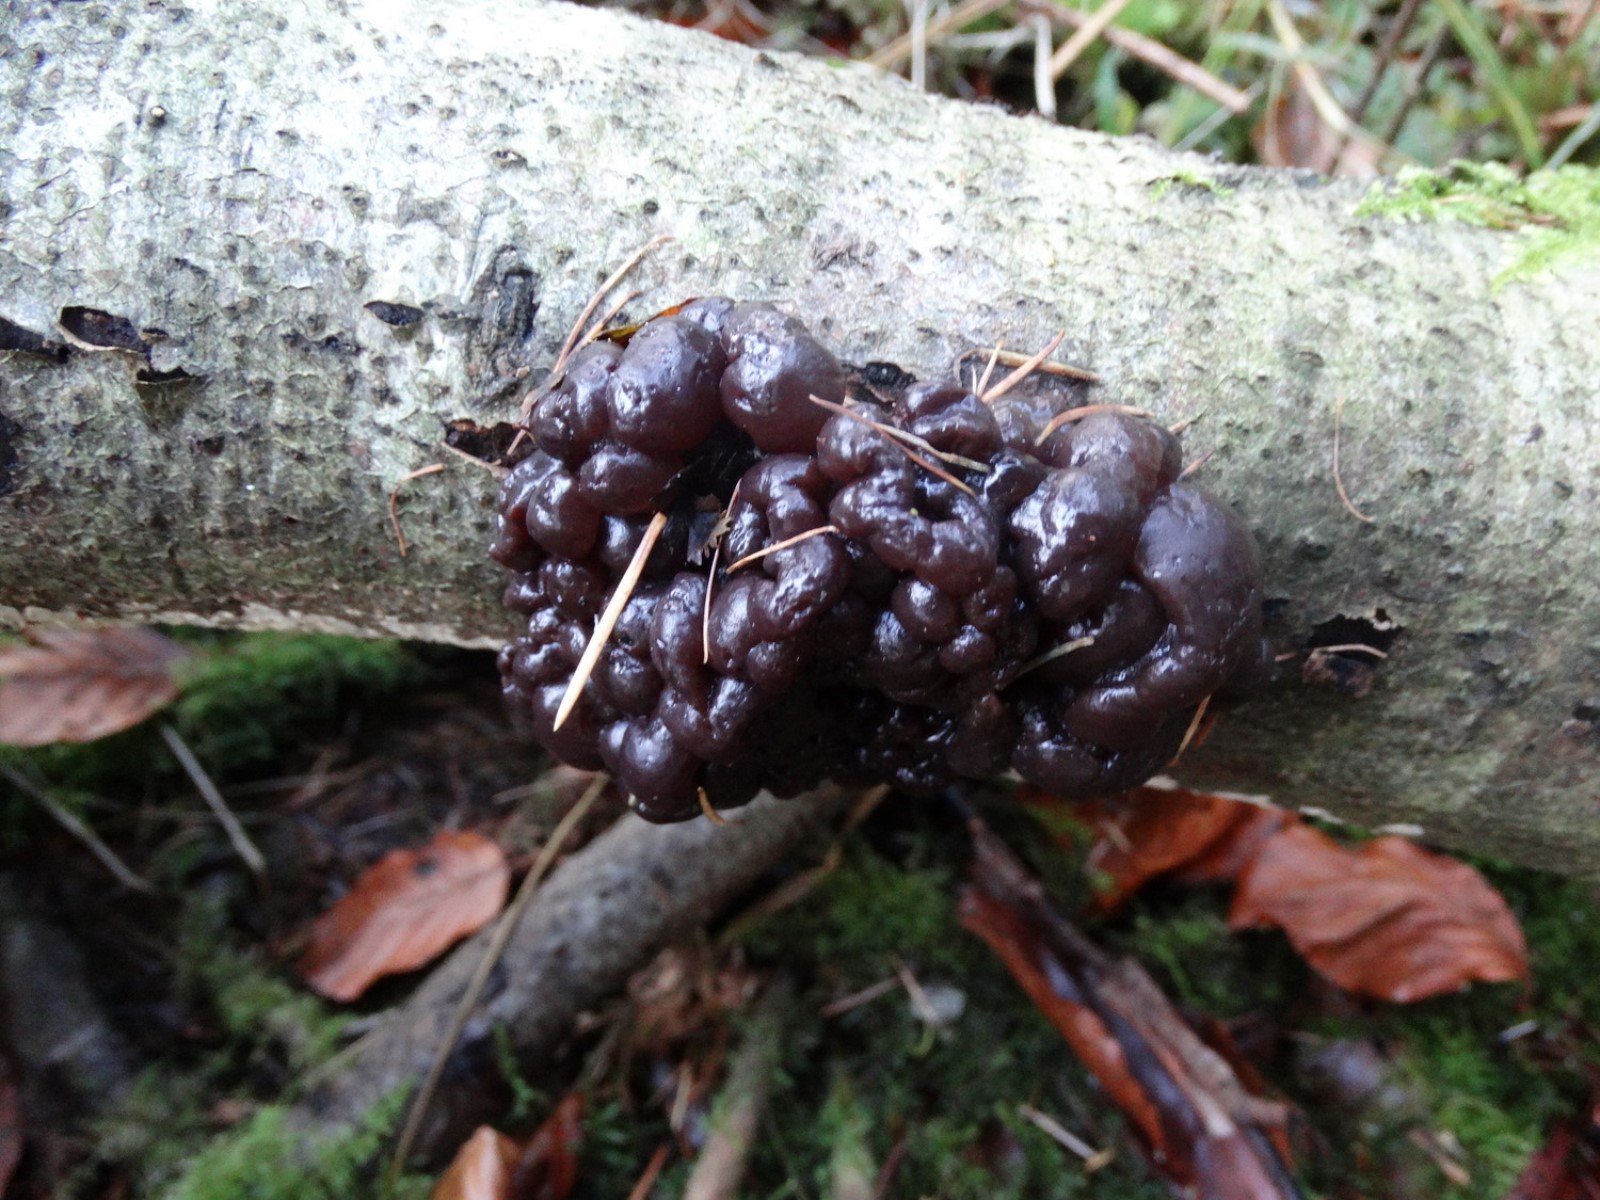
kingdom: Fungi
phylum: Basidiomycota
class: Agaricomycetes
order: Auriculariales
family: Auriculariaceae
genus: Exidia
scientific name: Exidia nigricans
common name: almindelig bævretop
